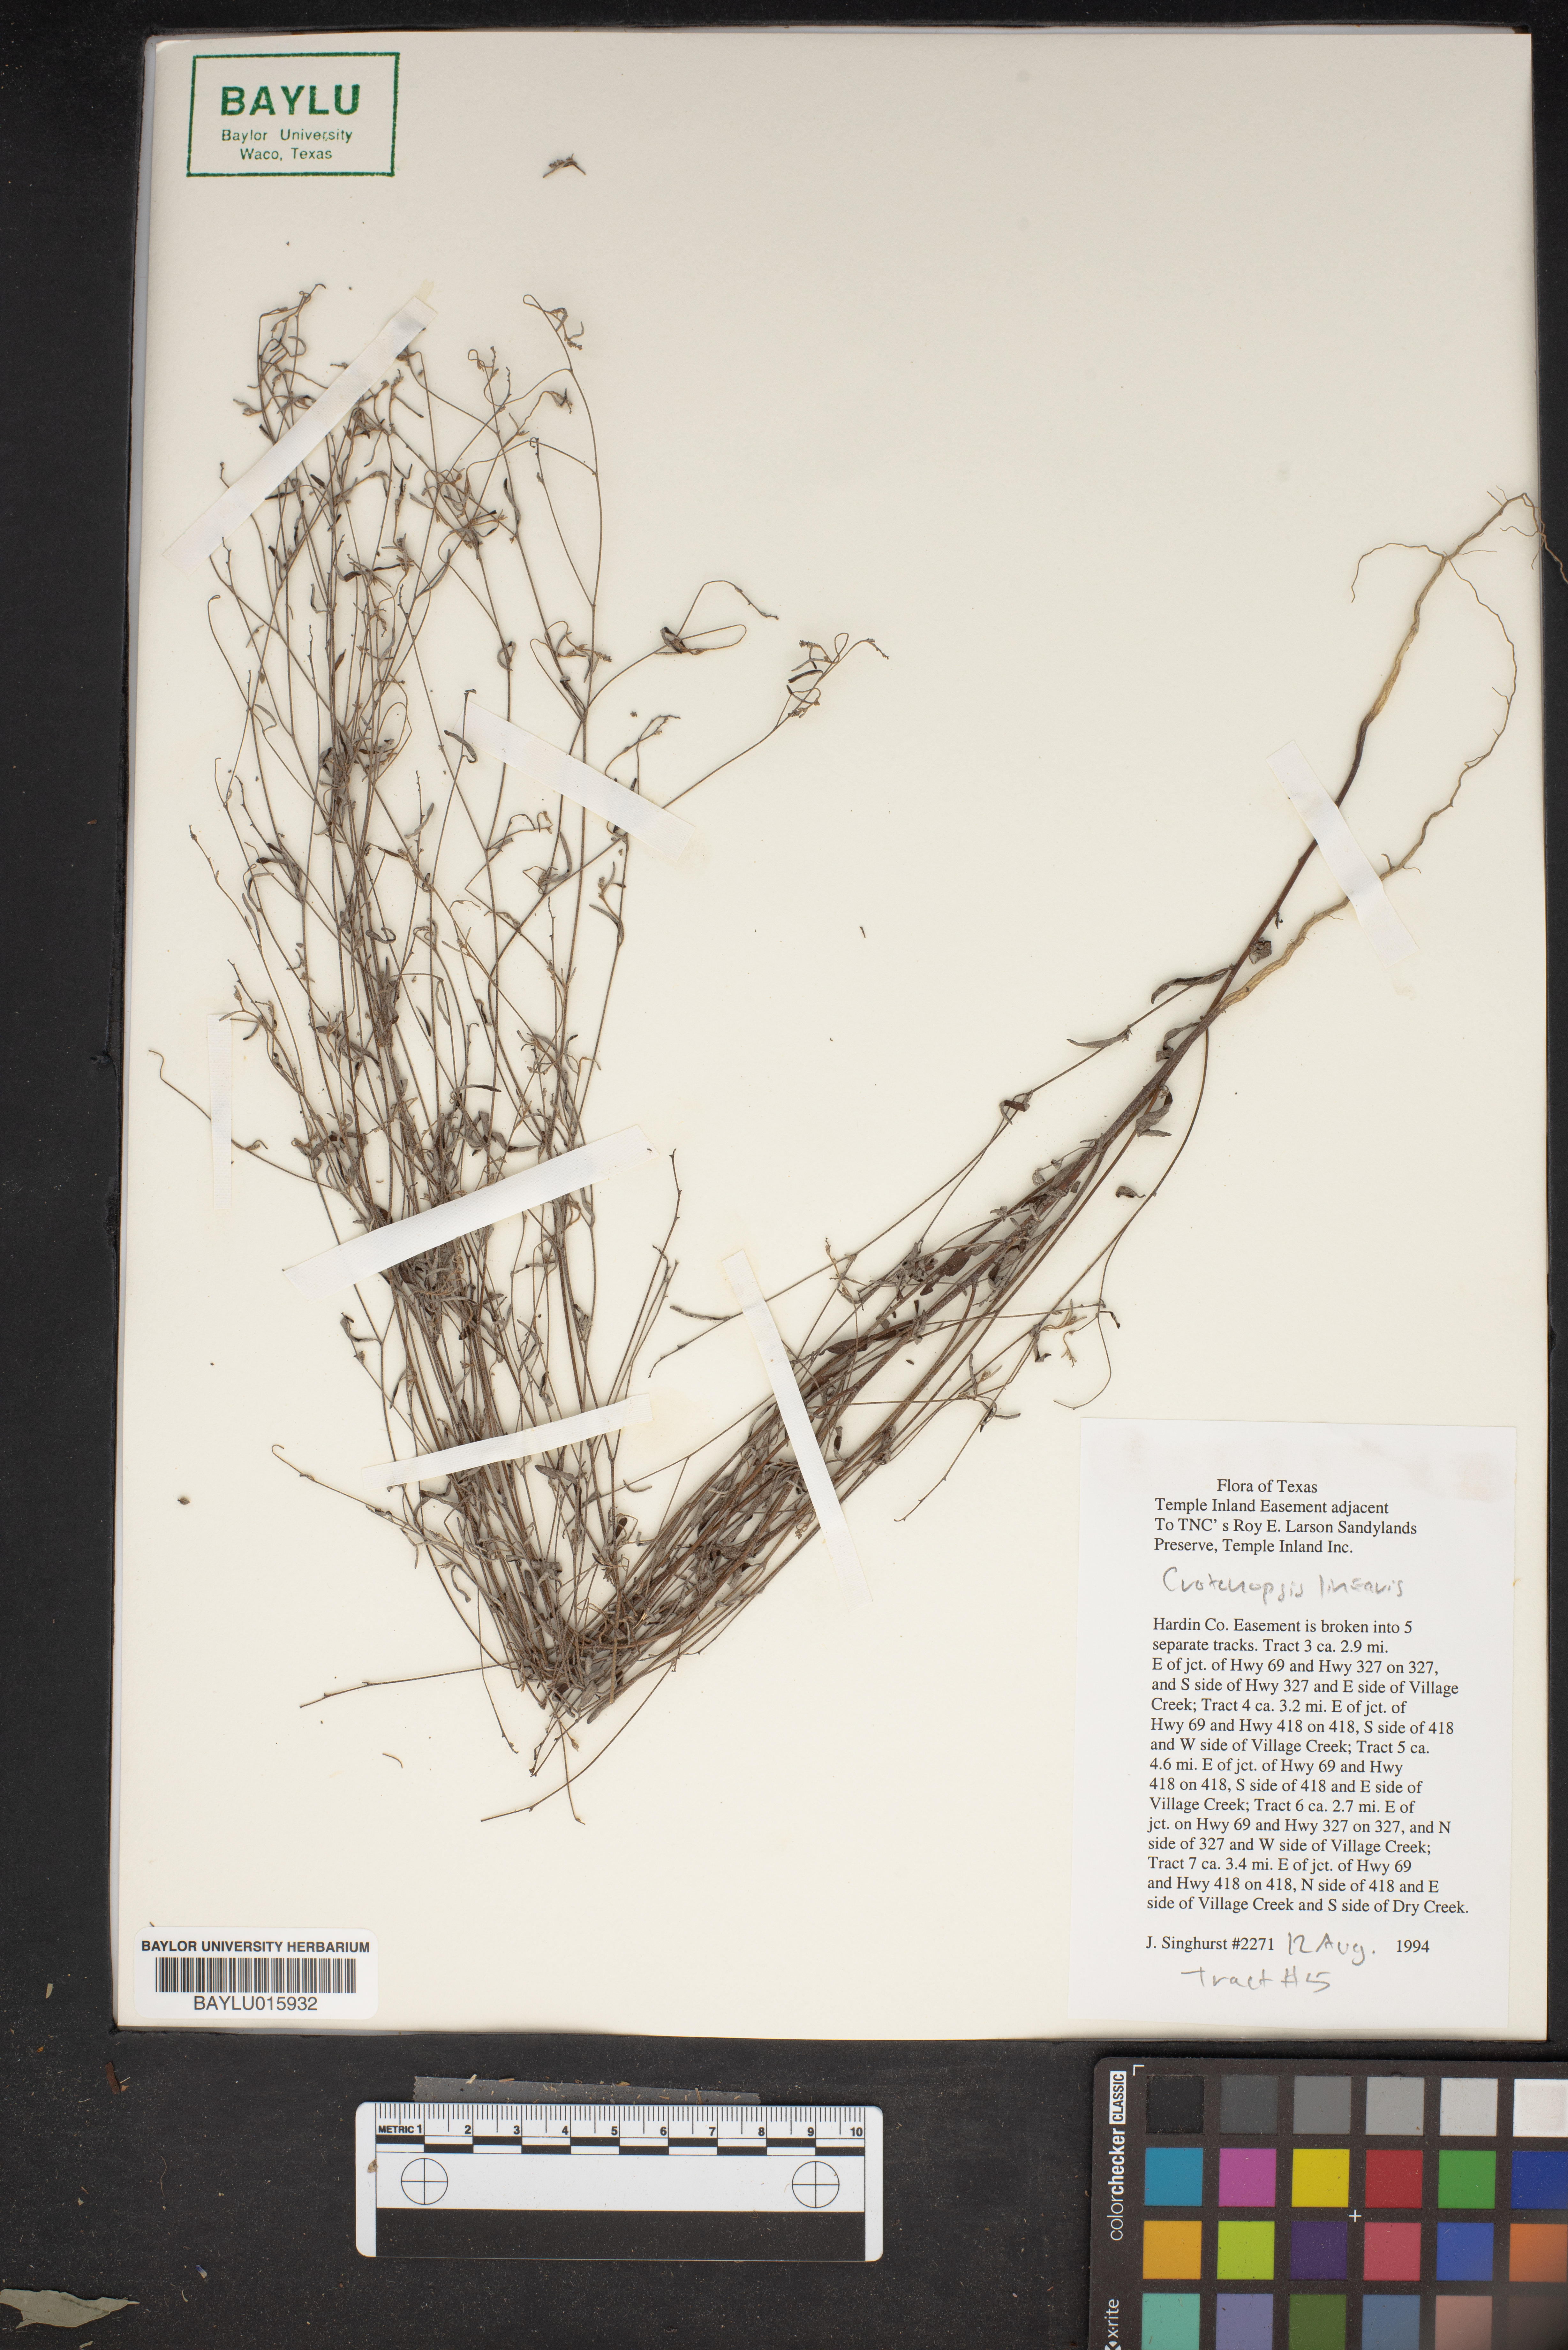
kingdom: Plantae
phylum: Tracheophyta
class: Magnoliopsida
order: Malpighiales
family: Euphorbiaceae
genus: Croton
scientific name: Croton michauxii
